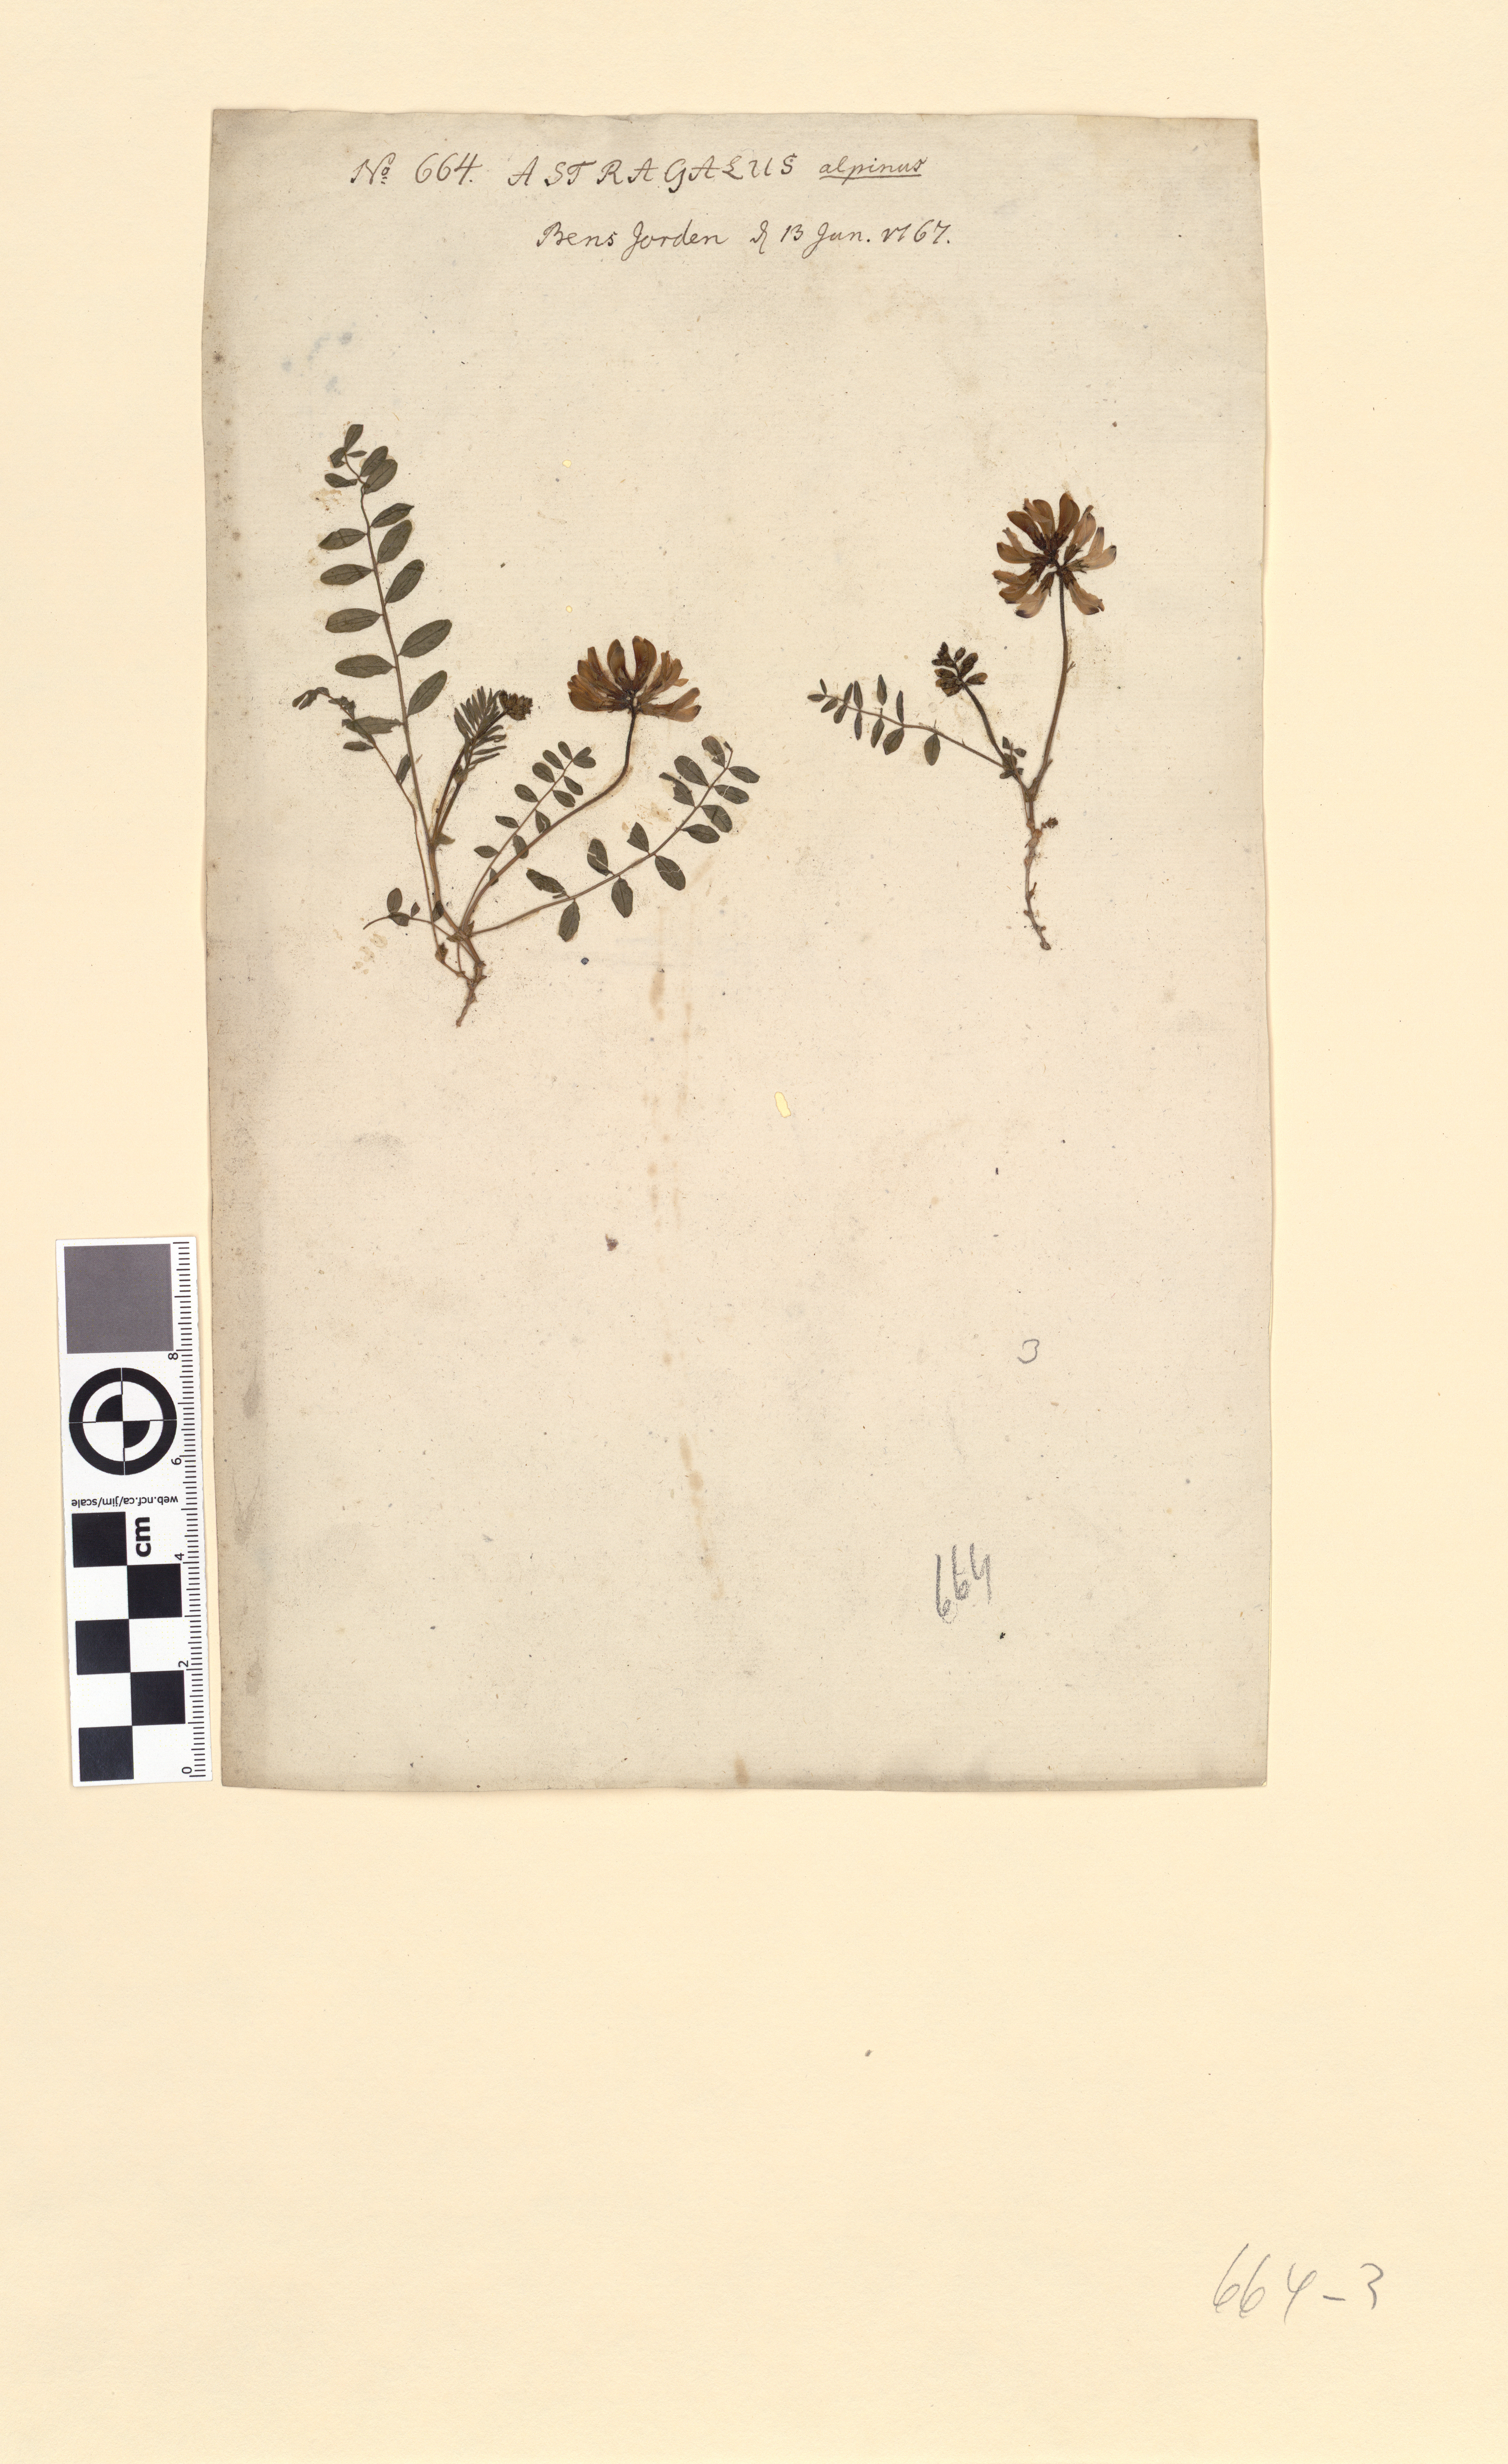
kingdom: Plantae
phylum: Tracheophyta
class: Magnoliopsida
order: Fabales
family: Fabaceae
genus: Astragalus
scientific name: Astragalus norvegicus
